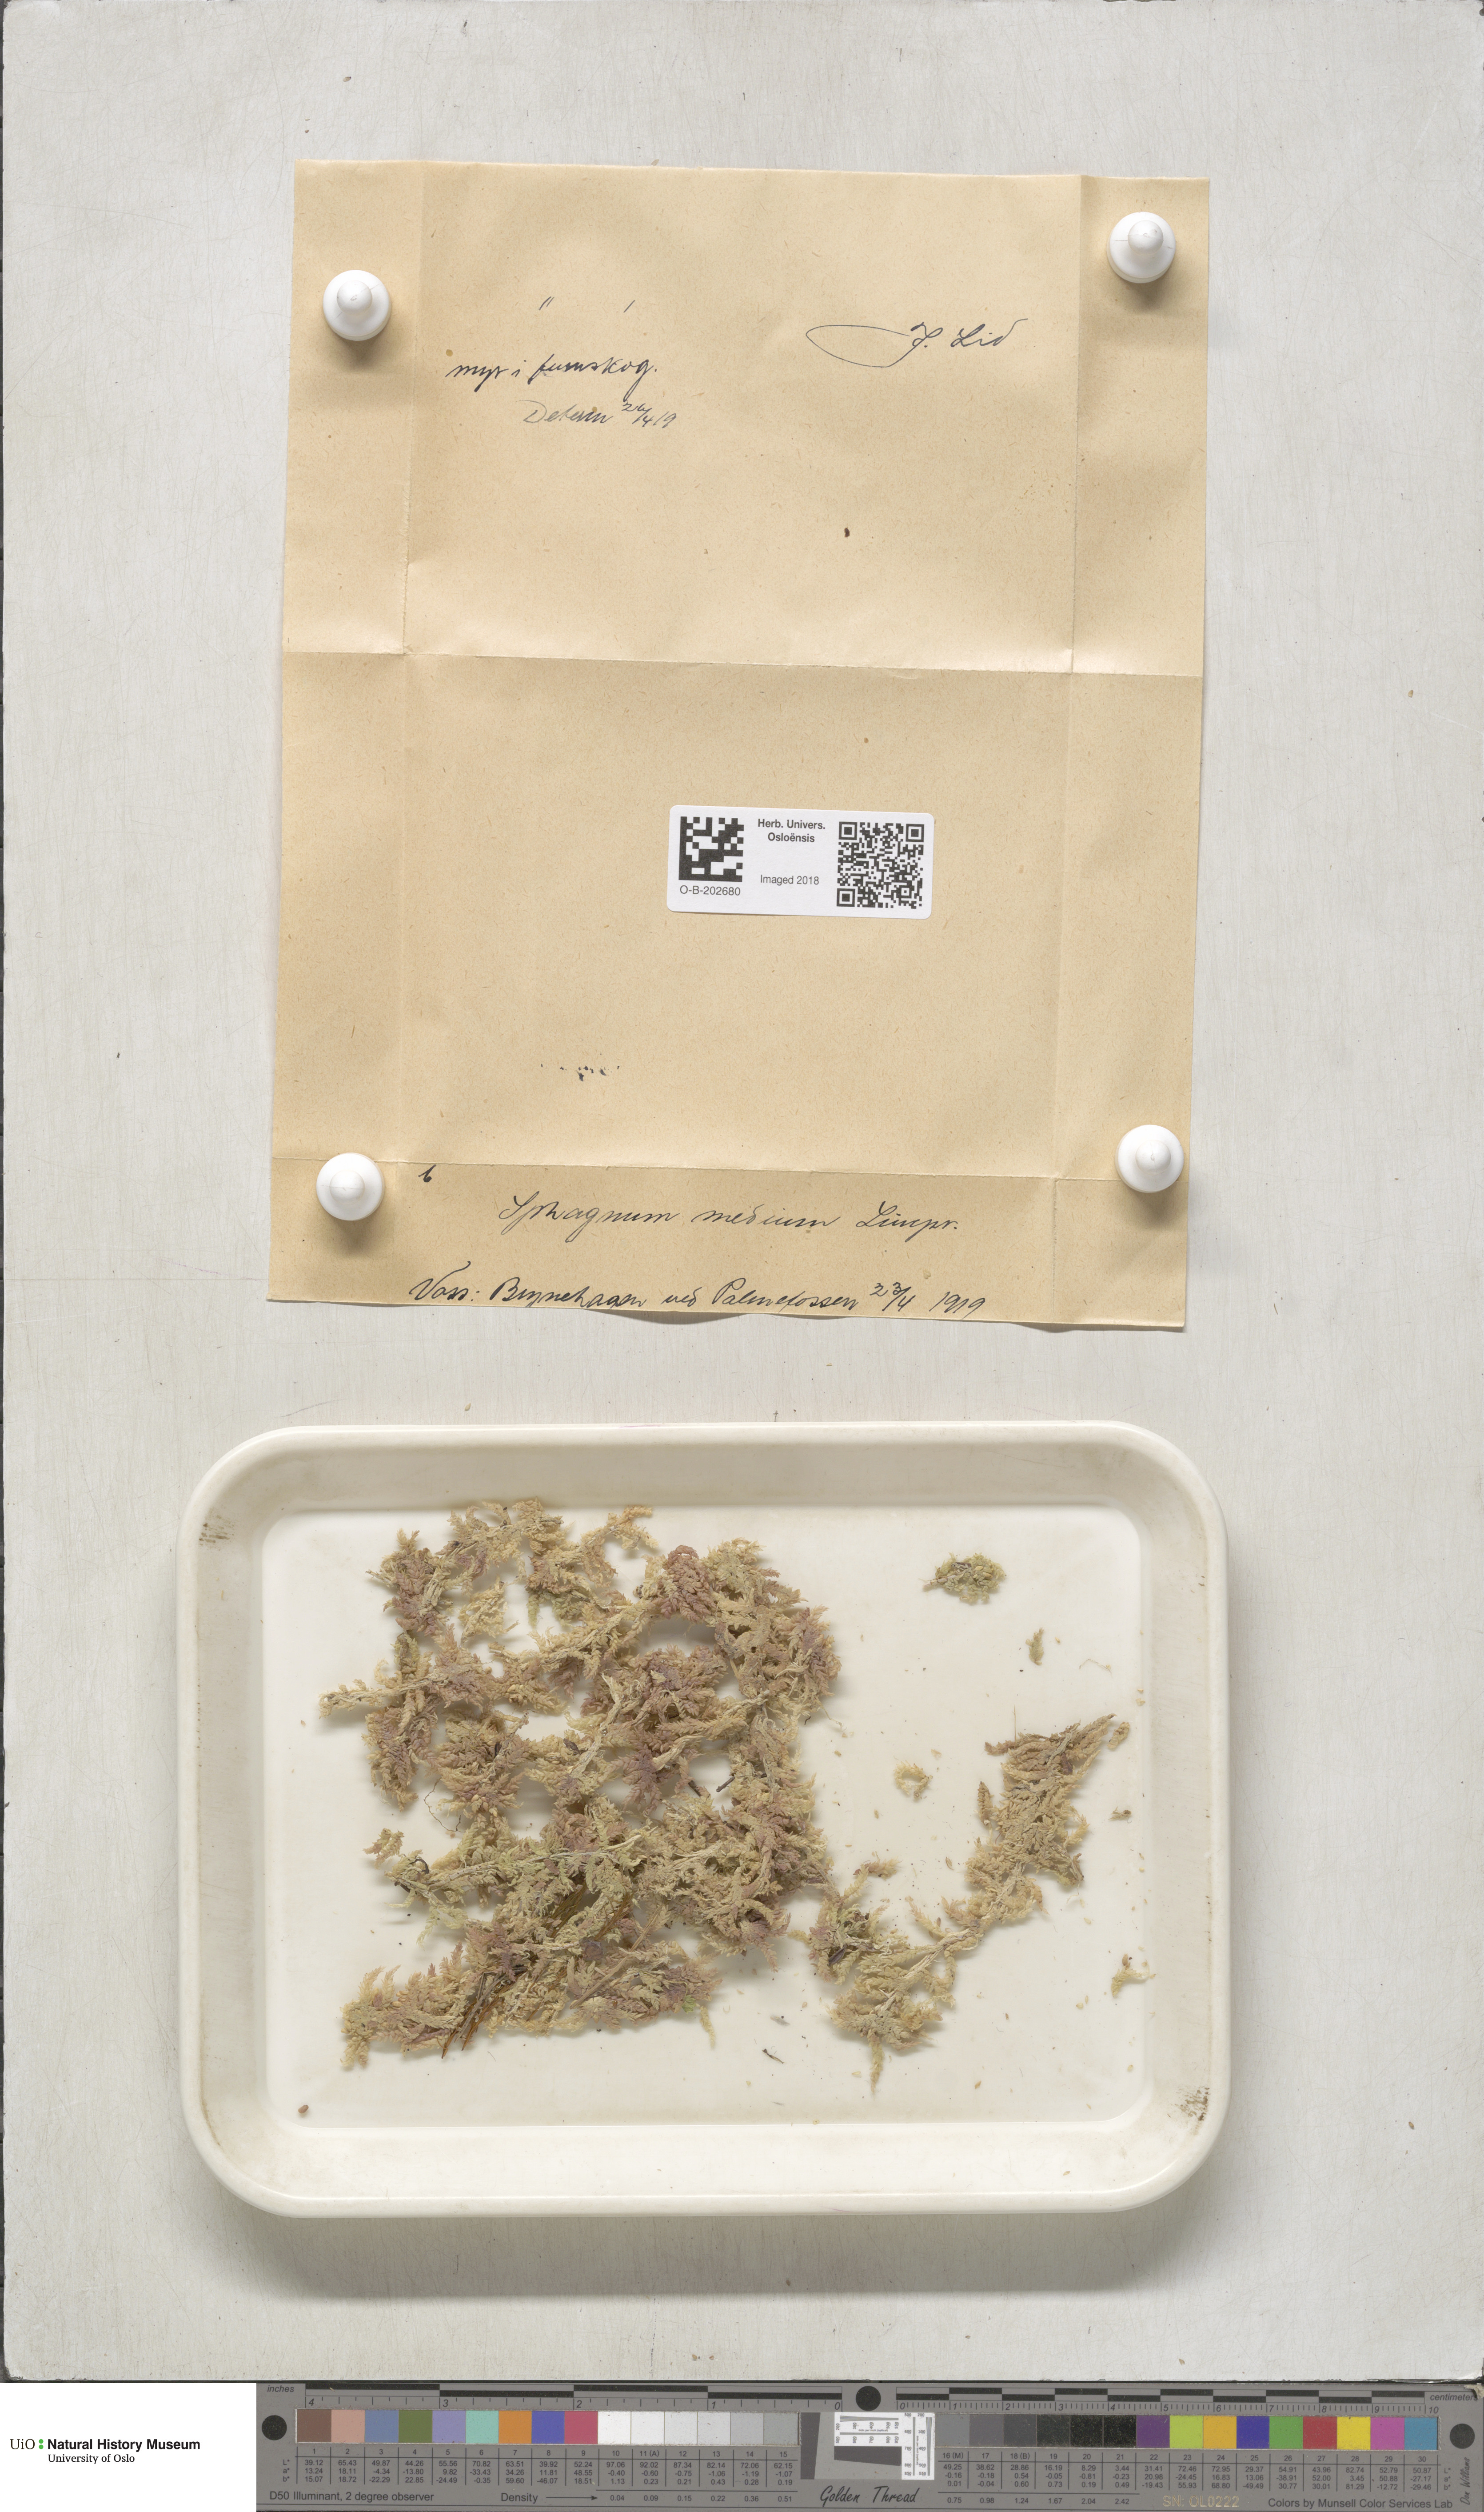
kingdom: Plantae
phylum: Bryophyta
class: Sphagnopsida
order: Sphagnales
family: Sphagnaceae
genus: Sphagnum
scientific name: Sphagnum magellanicum
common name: Magellan's peat moss
